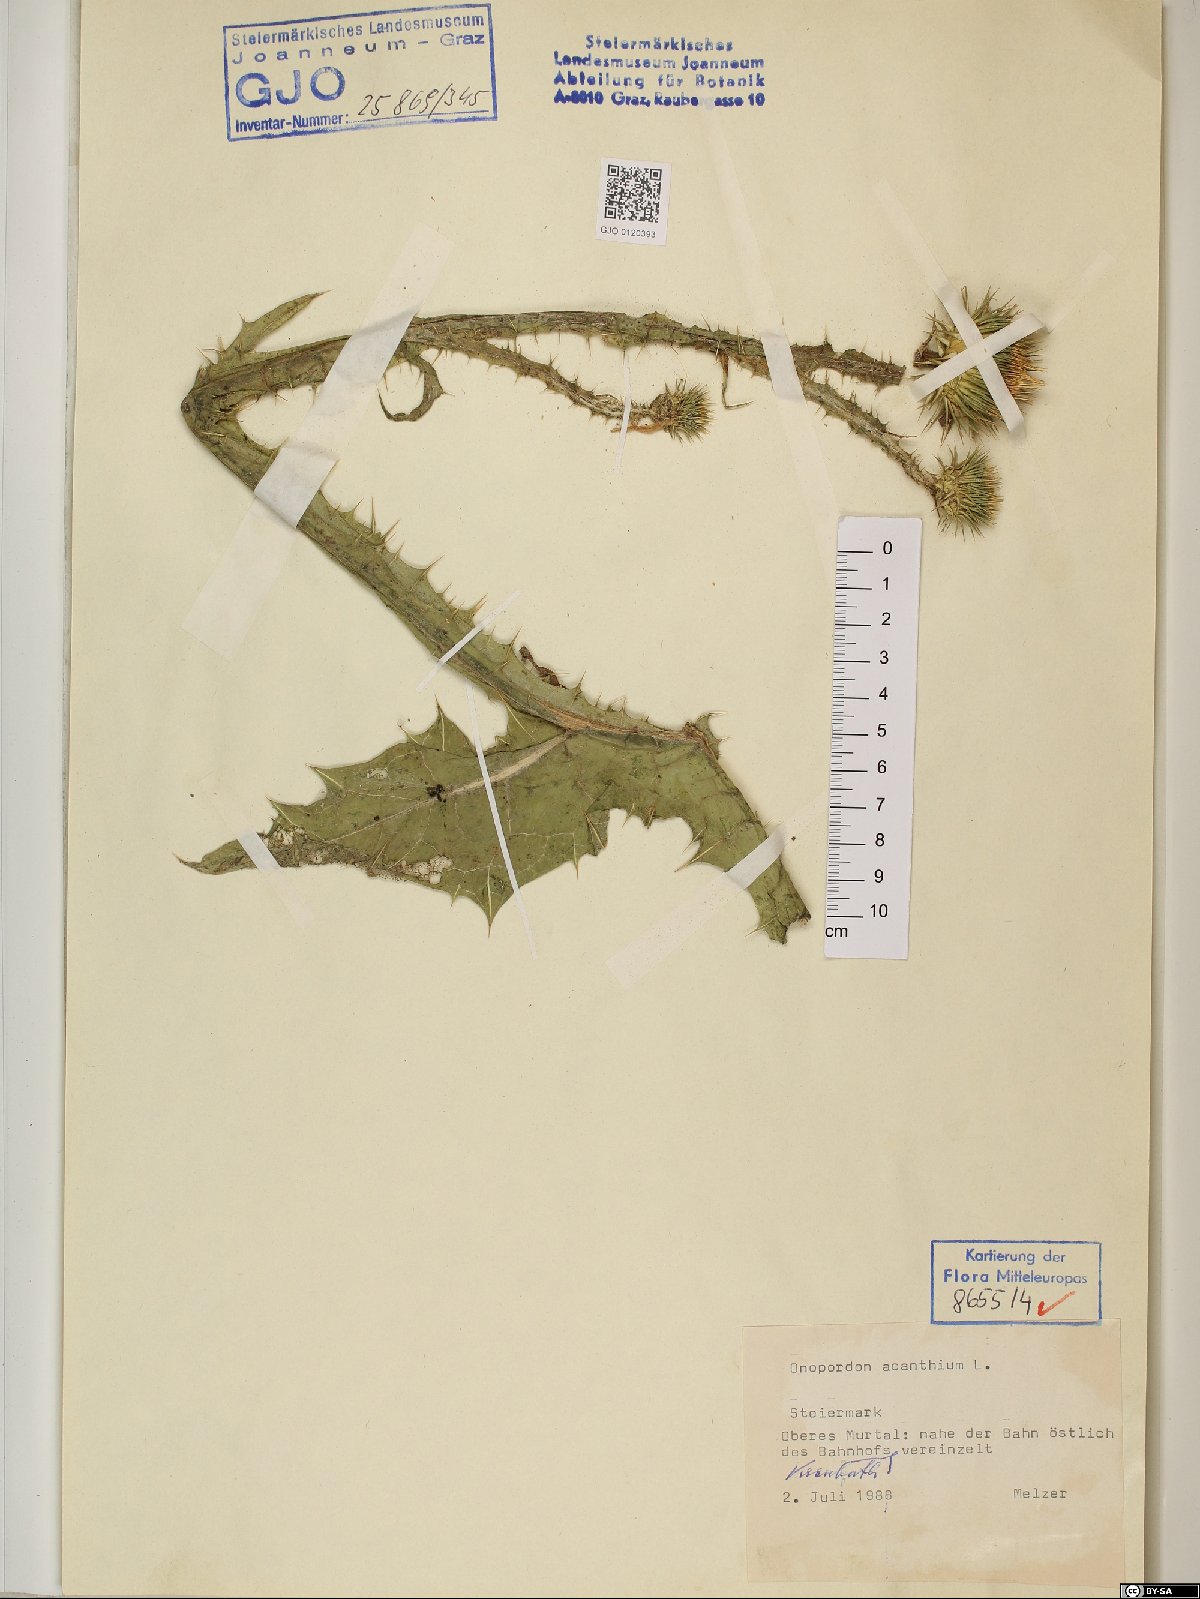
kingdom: Plantae
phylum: Tracheophyta
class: Magnoliopsida
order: Asterales
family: Asteraceae
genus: Onopordum
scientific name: Onopordum acanthium
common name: Scotch thistle
